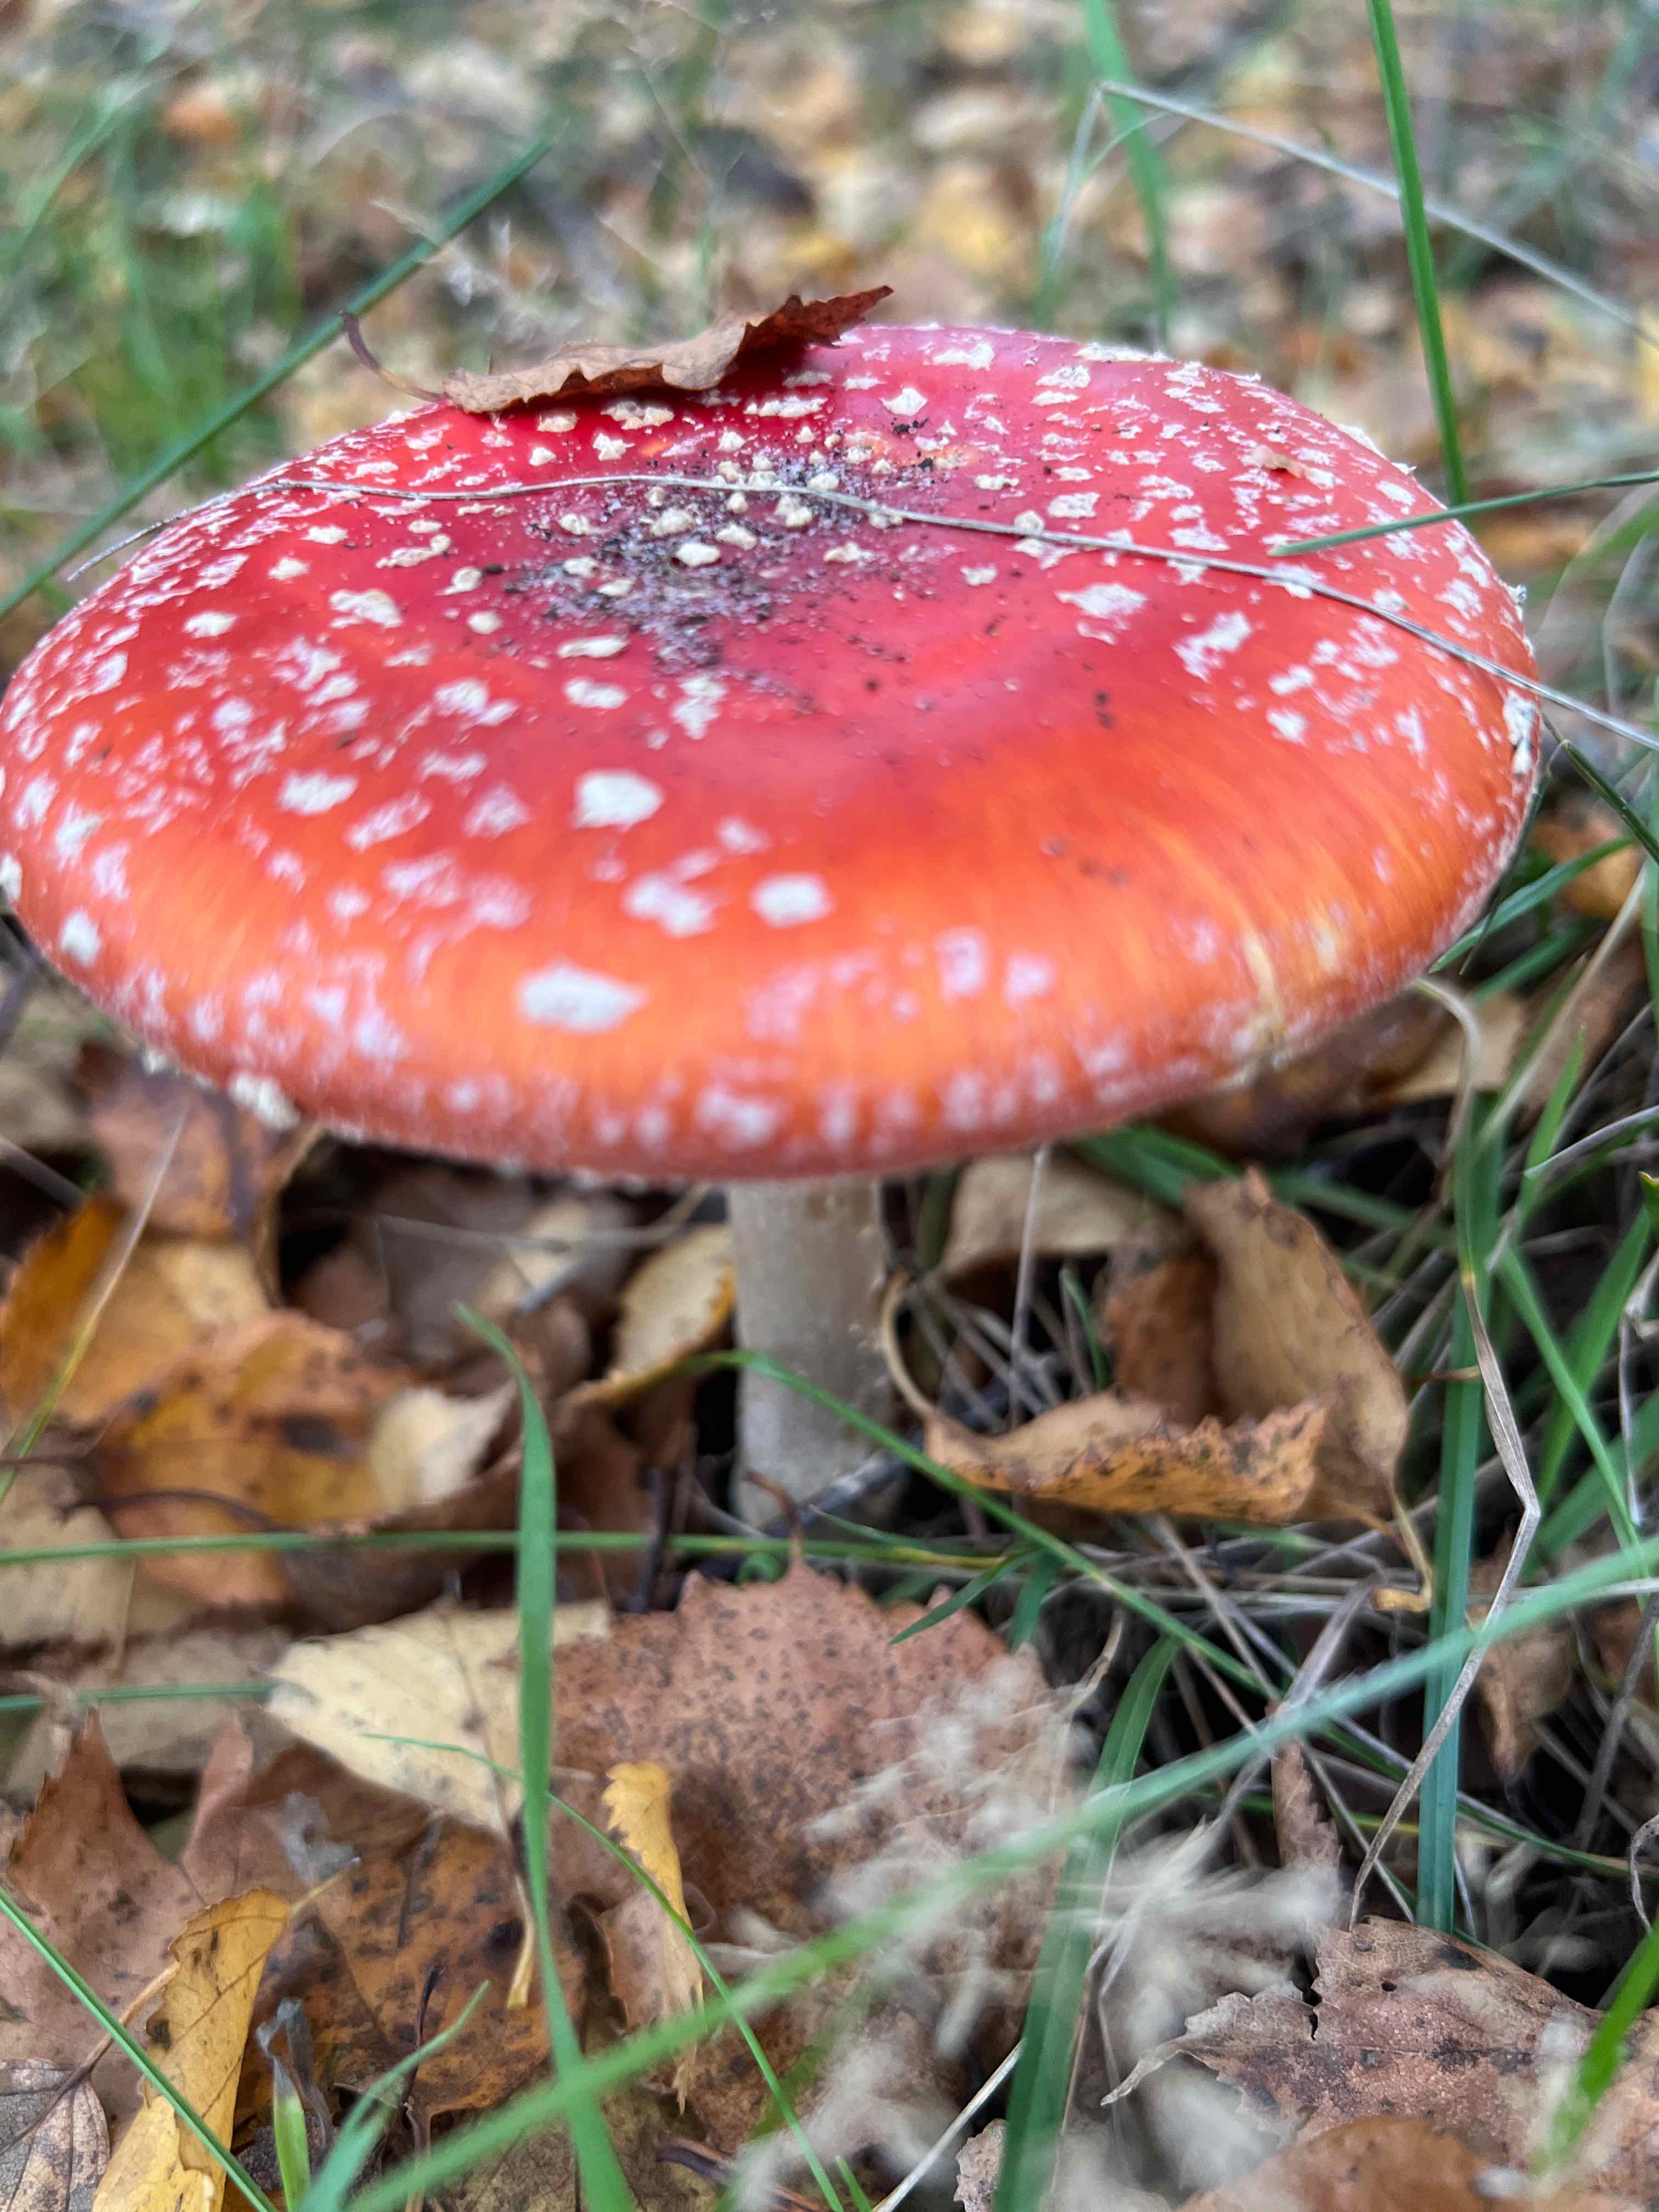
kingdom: Fungi
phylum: Basidiomycota
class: Agaricomycetes
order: Agaricales
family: Amanitaceae
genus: Amanita
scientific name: Amanita muscaria
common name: rød fluesvamp
